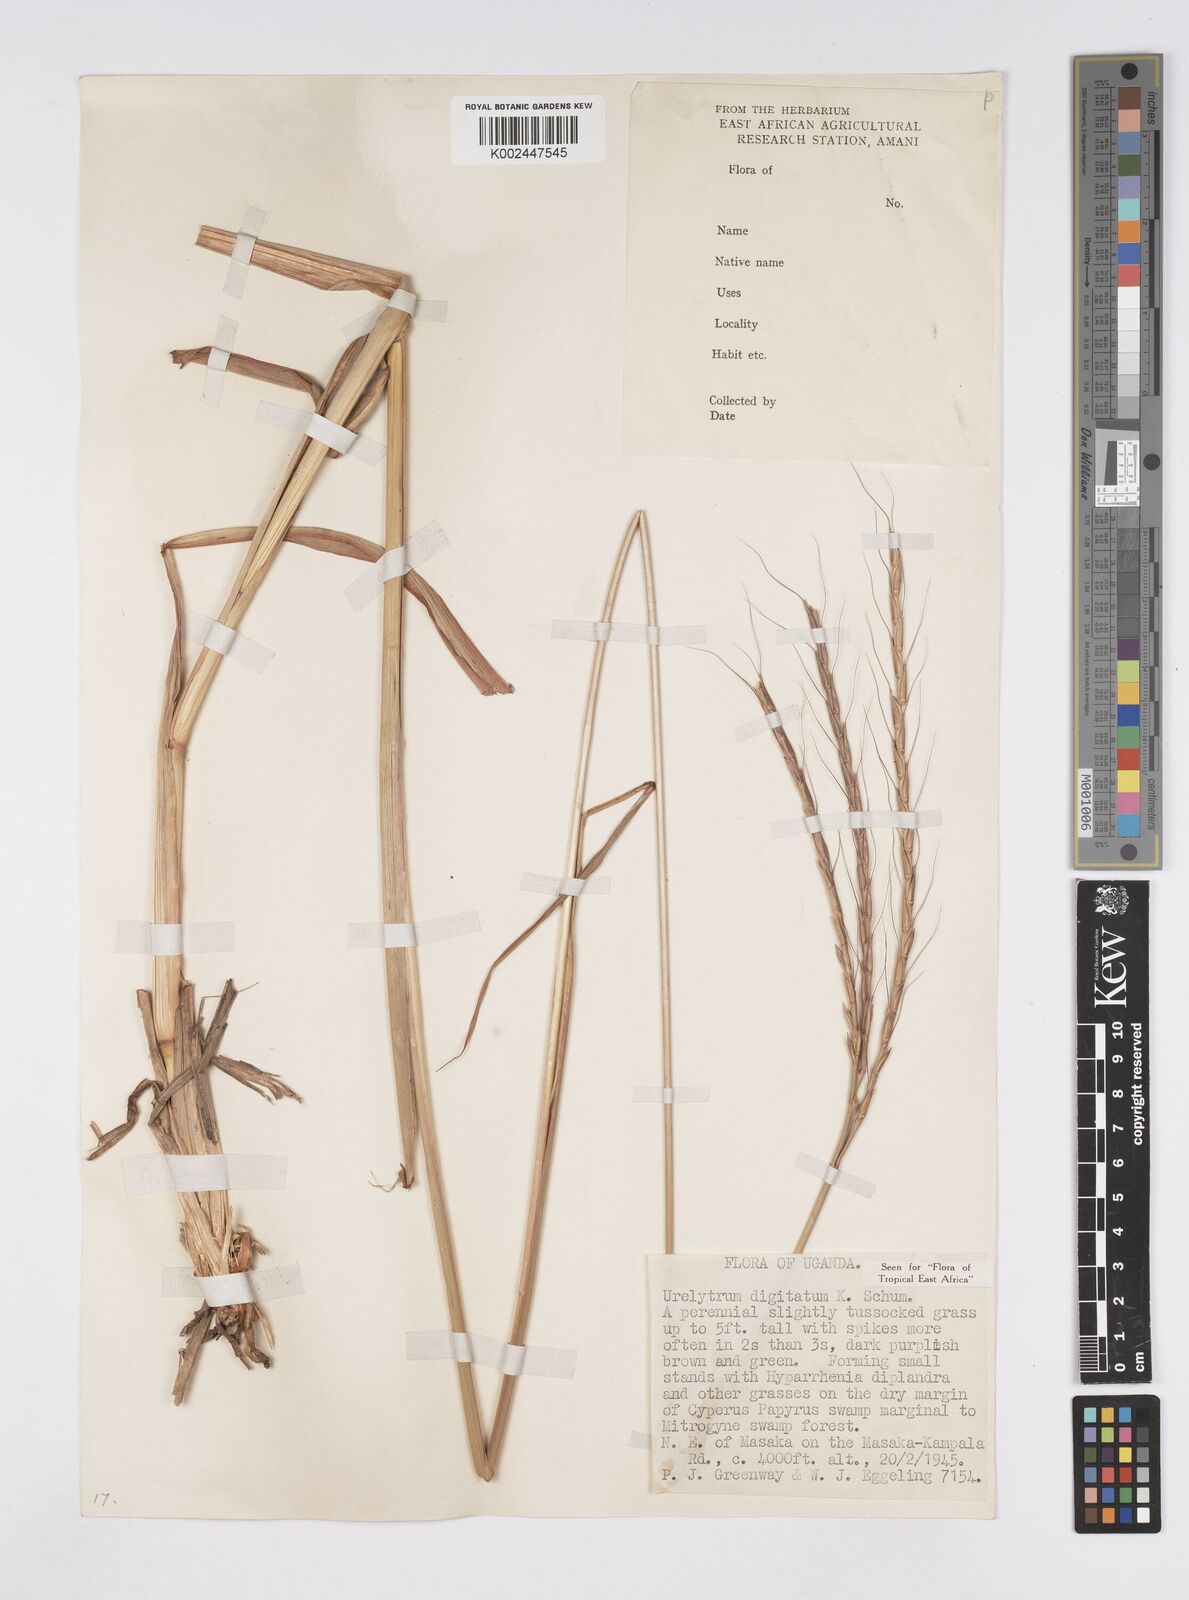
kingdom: Plantae
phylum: Tracheophyta
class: Liliopsida
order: Poales
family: Poaceae
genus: Urelytrum
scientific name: Urelytrum digitatum
